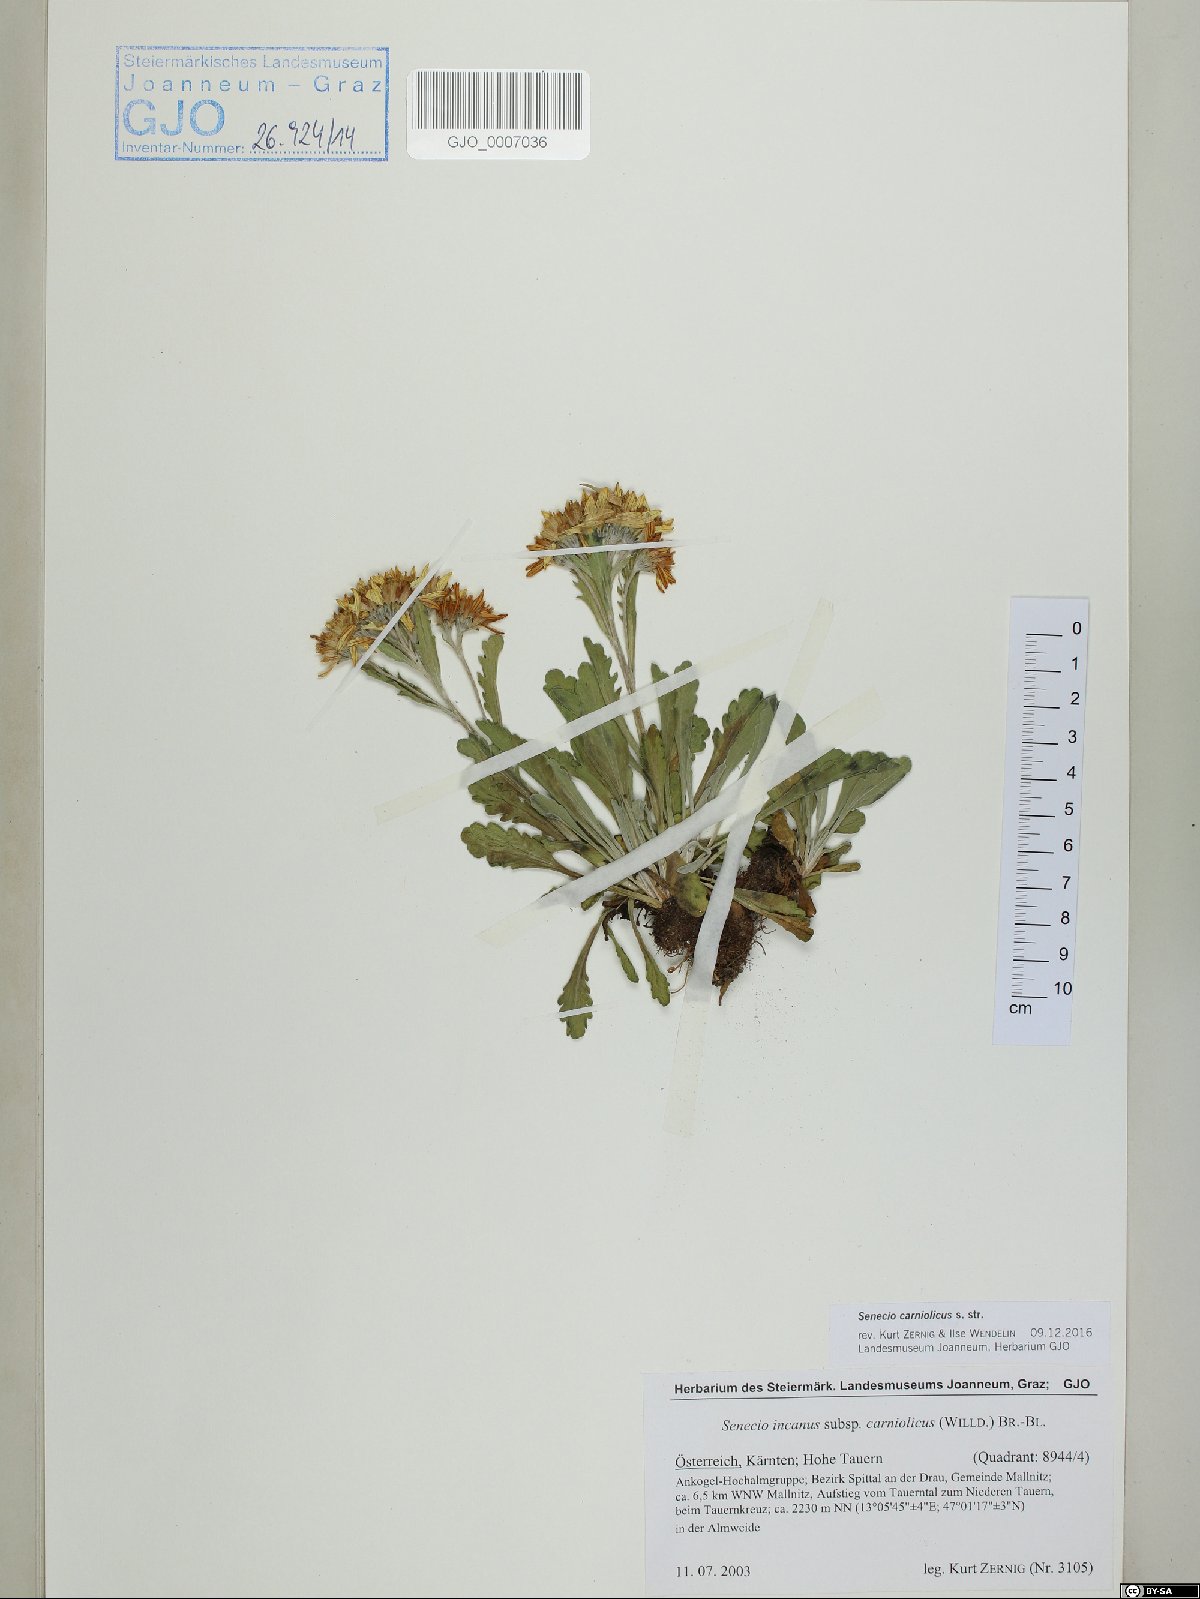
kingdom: Plantae
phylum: Tracheophyta
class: Magnoliopsida
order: Asterales
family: Asteraceae
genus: Jacobaea
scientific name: Jacobaea carniolica
